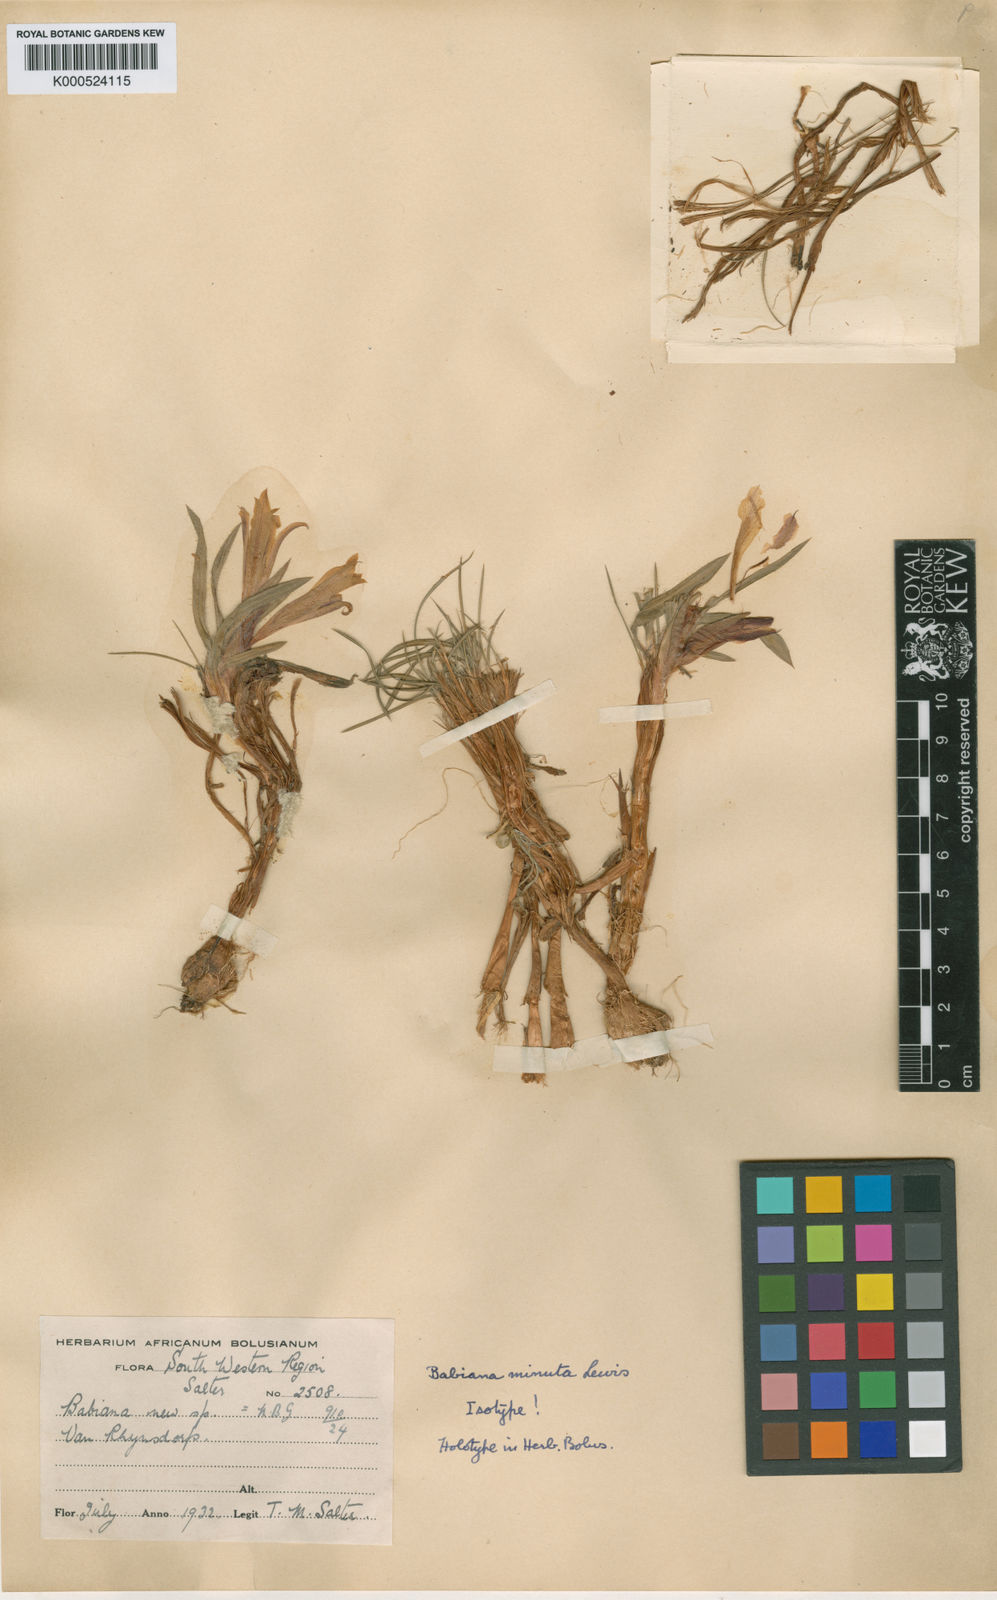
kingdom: Plantae
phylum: Tracheophyta
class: Liliopsida
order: Asparagales
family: Iridaceae
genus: Babiana
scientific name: Babiana minuta
